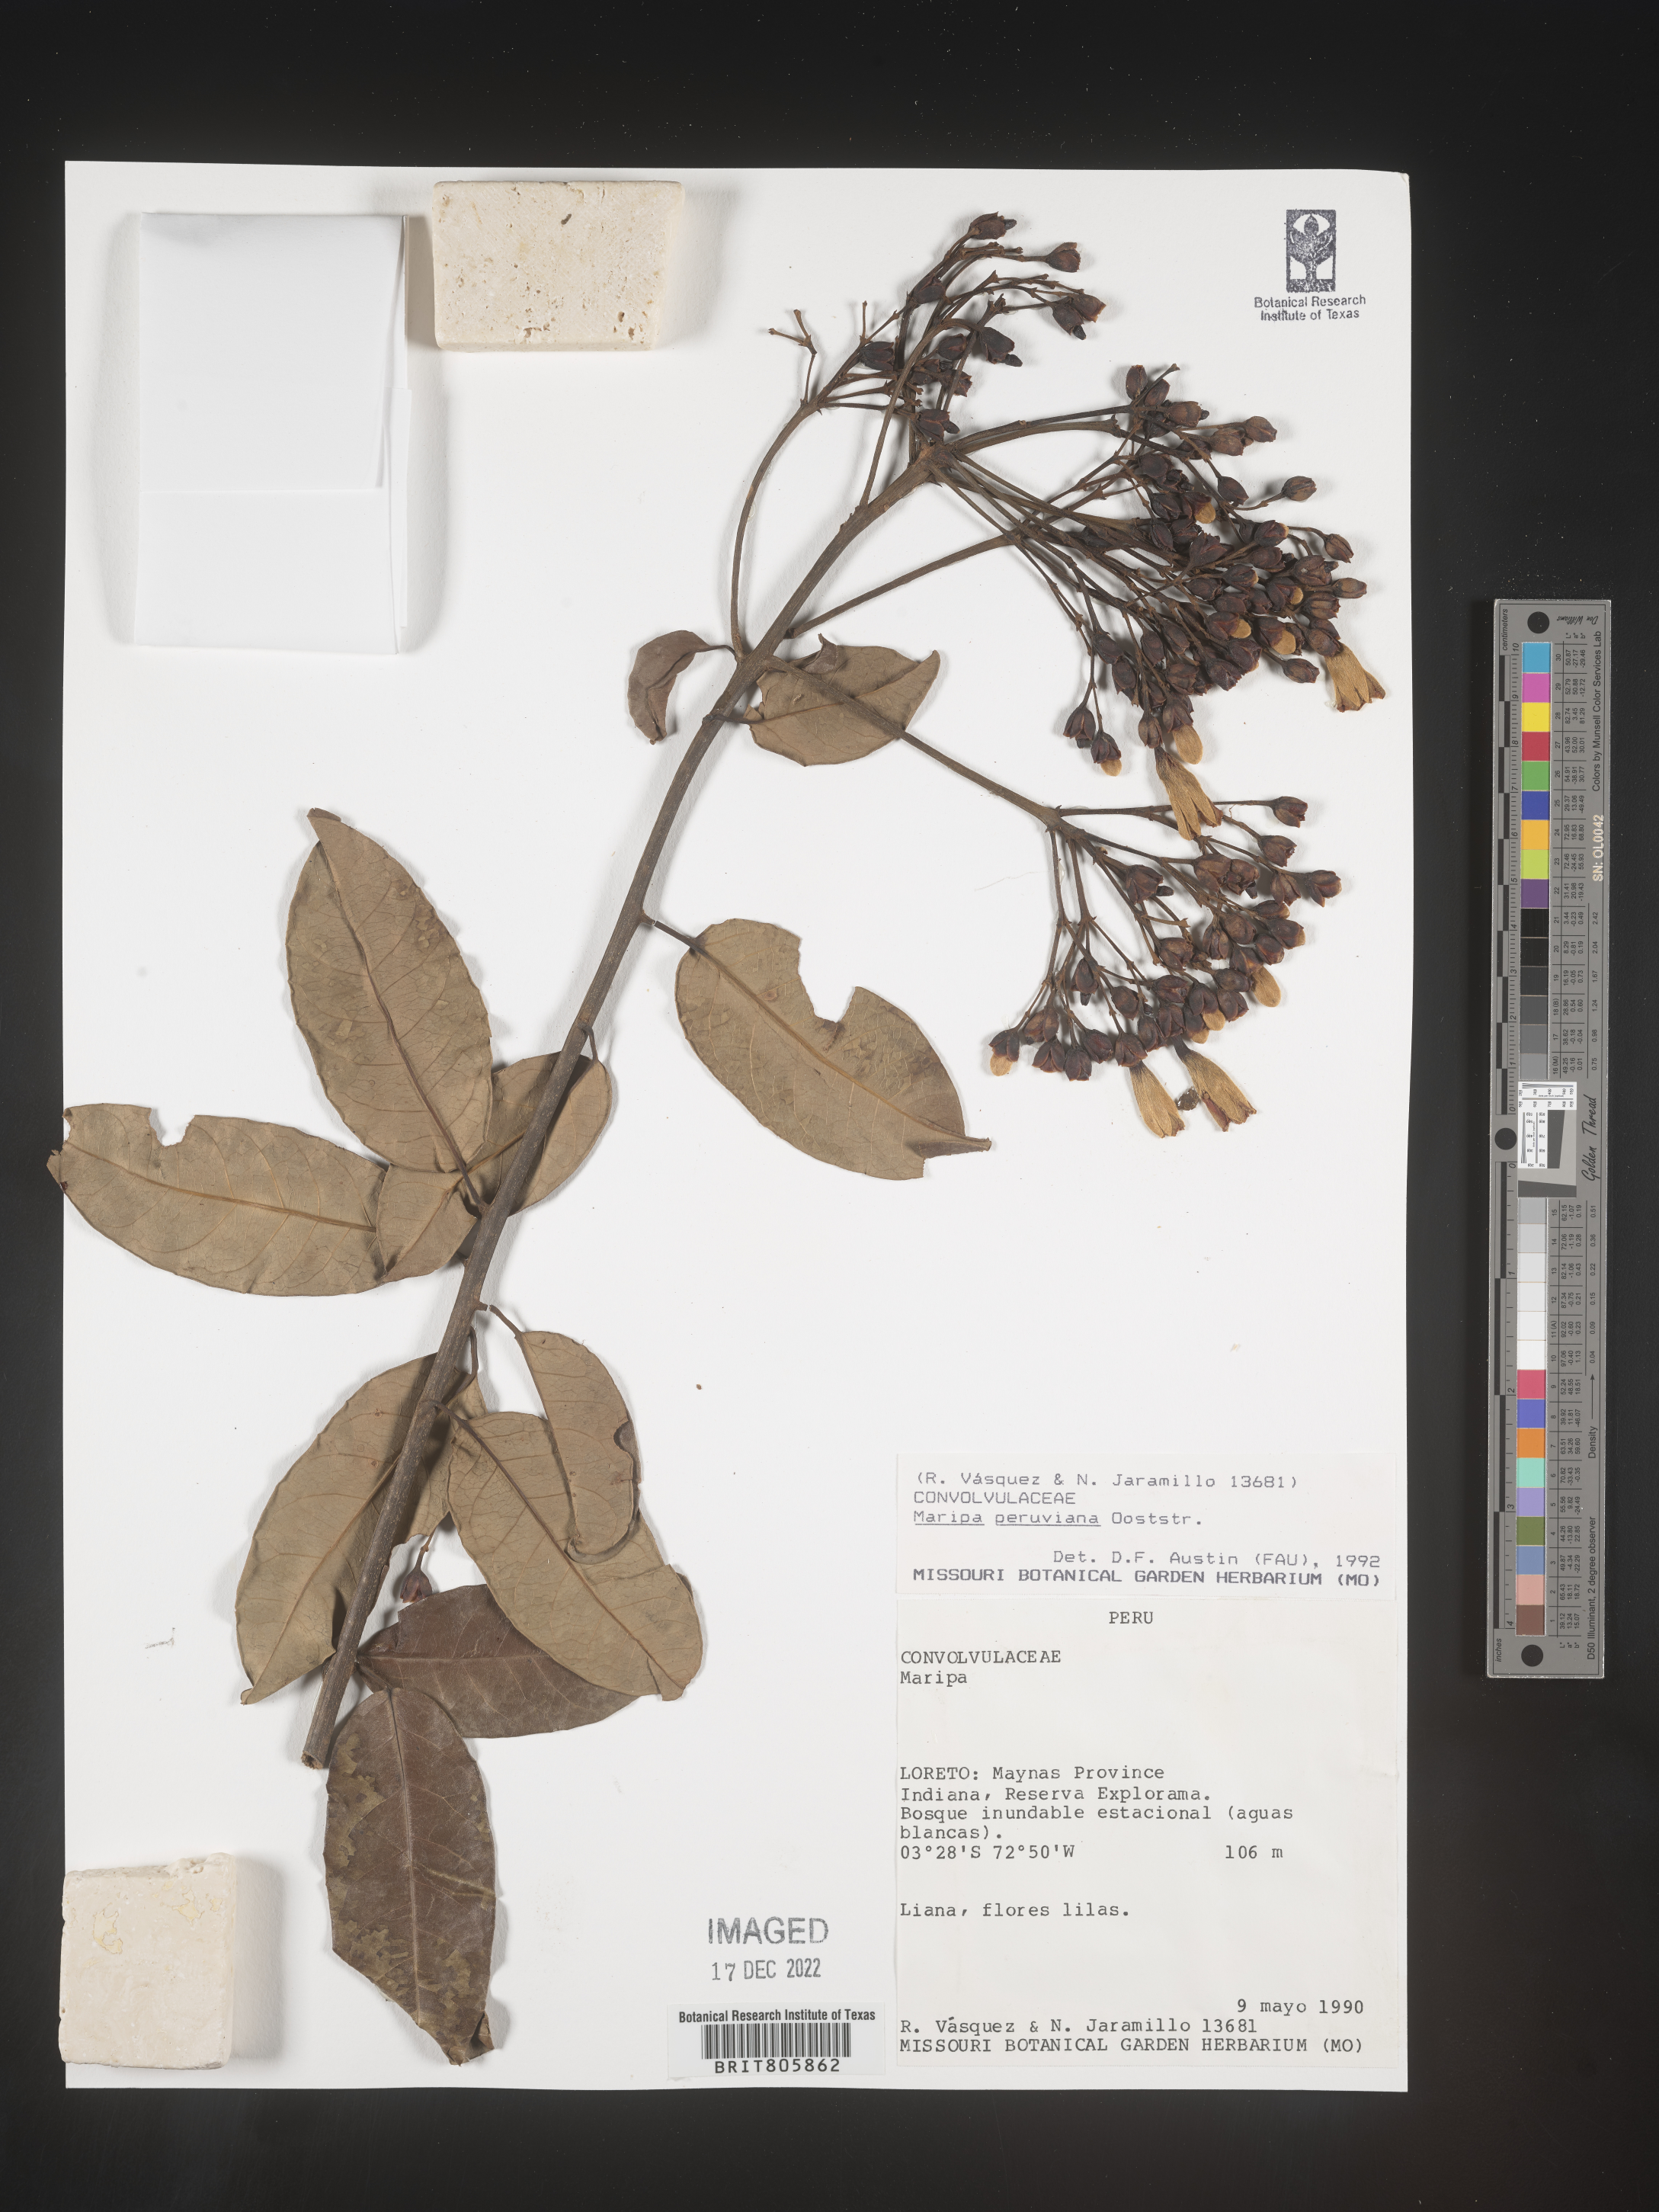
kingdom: Plantae
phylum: Tracheophyta
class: Magnoliopsida
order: Solanales
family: Convolvulaceae
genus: Maripa
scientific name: Maripa
